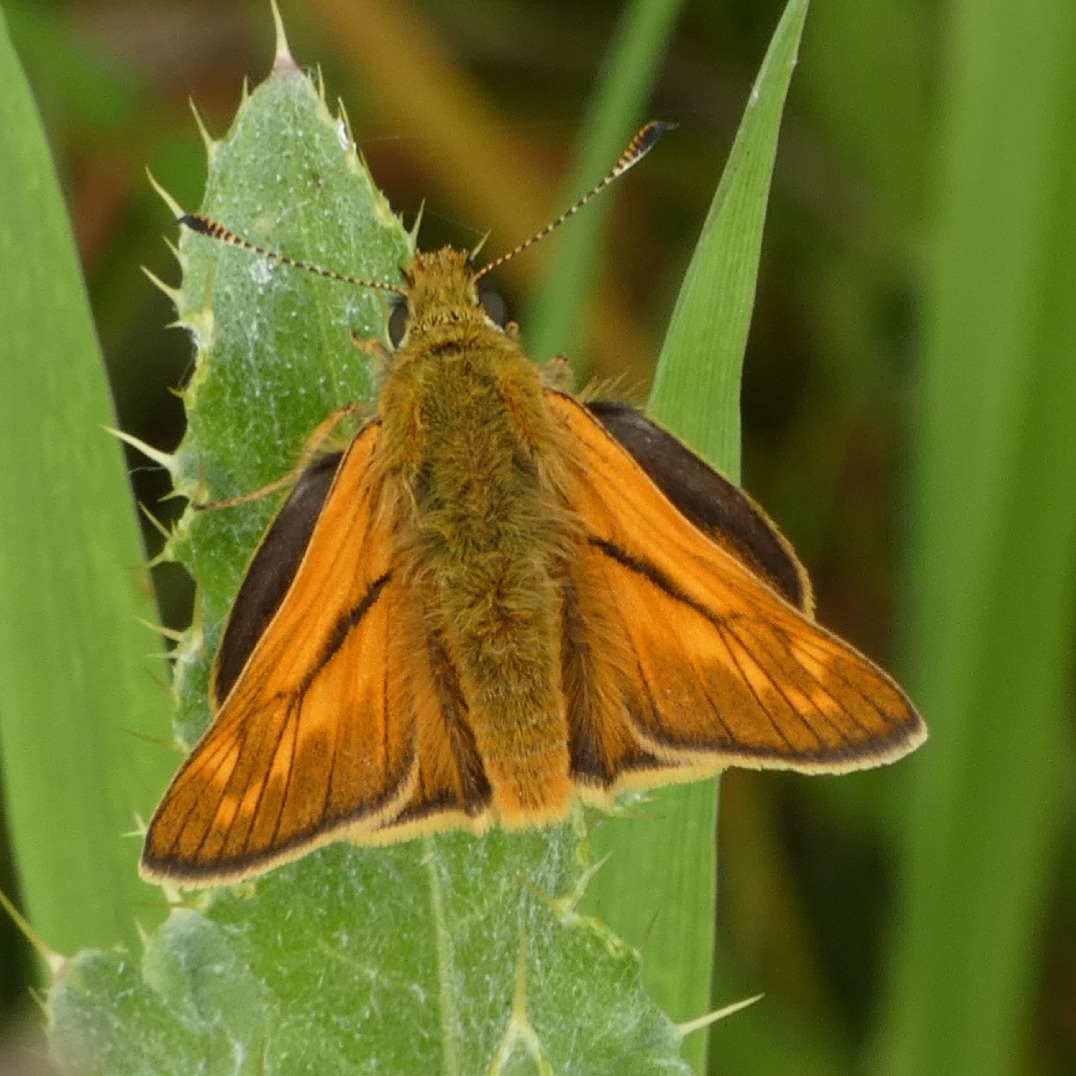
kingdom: Animalia
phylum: Arthropoda
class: Insecta
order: Lepidoptera
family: Hesperiidae
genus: Ochlodes
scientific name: Ochlodes venata
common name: Stor bredpande
